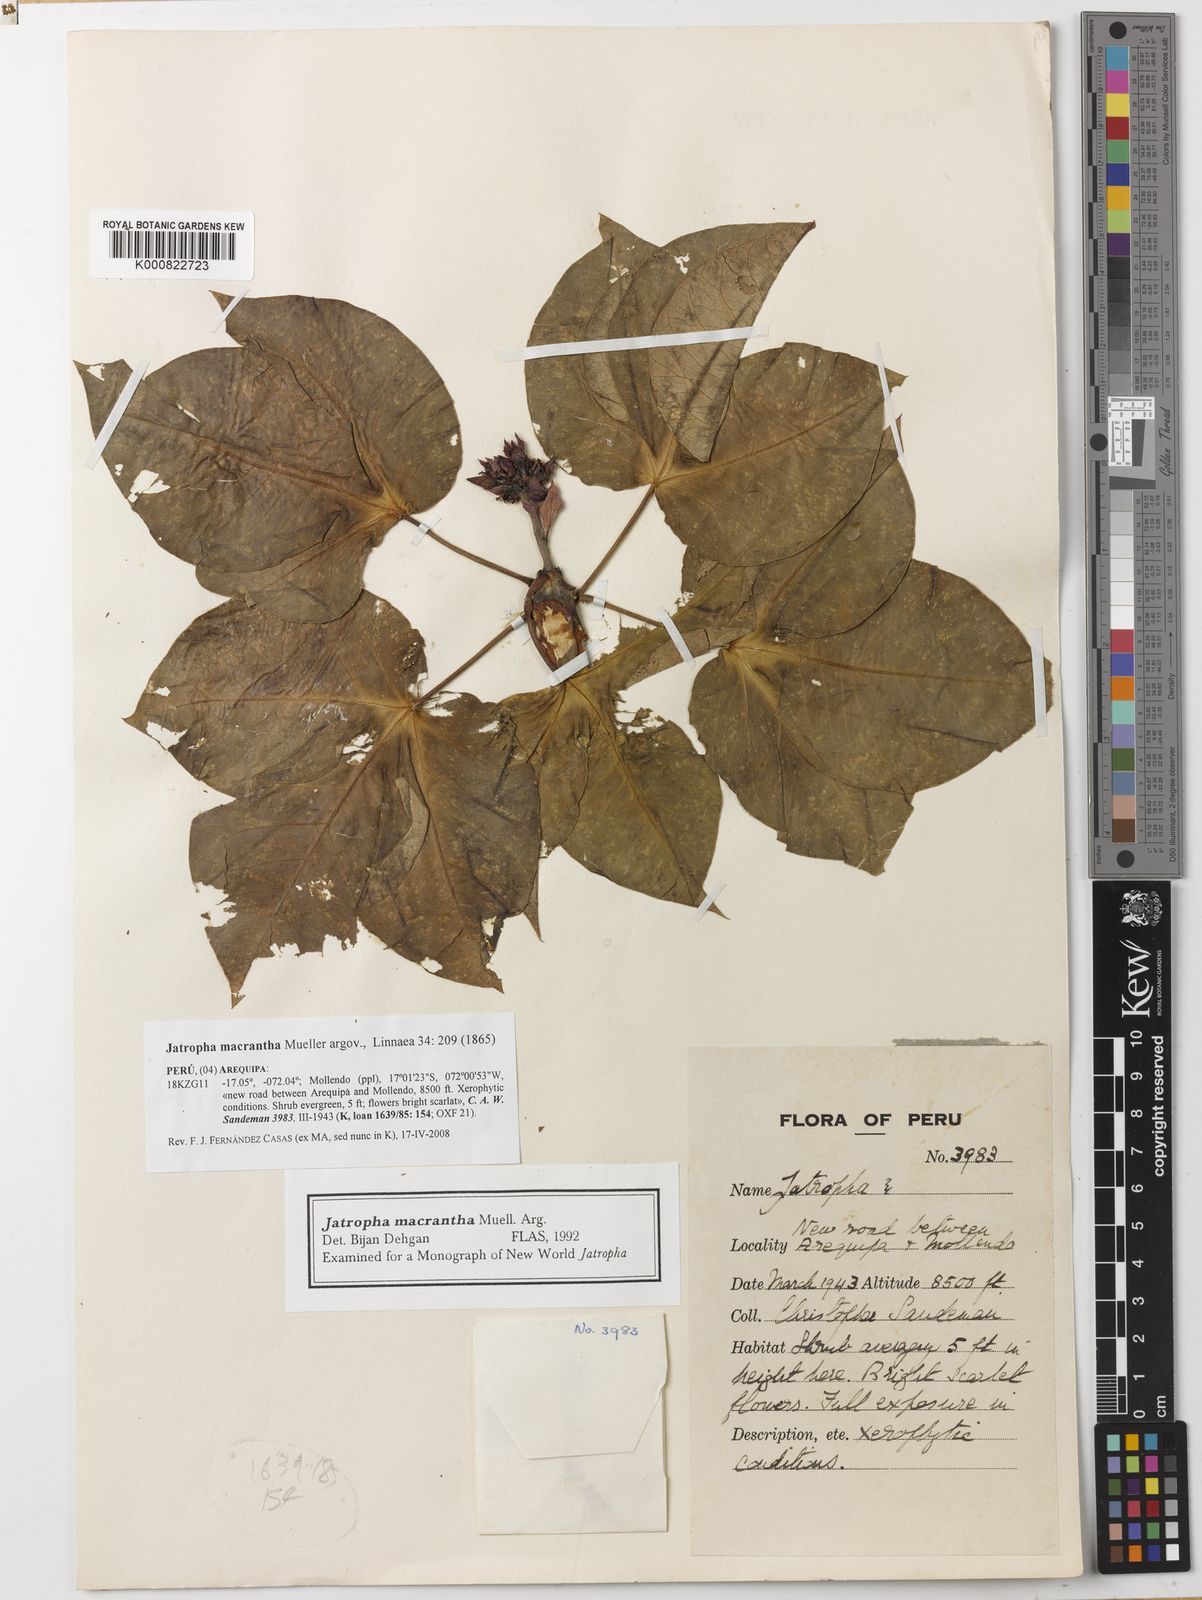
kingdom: Plantae
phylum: Tracheophyta
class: Magnoliopsida
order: Malpighiales
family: Euphorbiaceae
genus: Jatropha
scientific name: Jatropha
